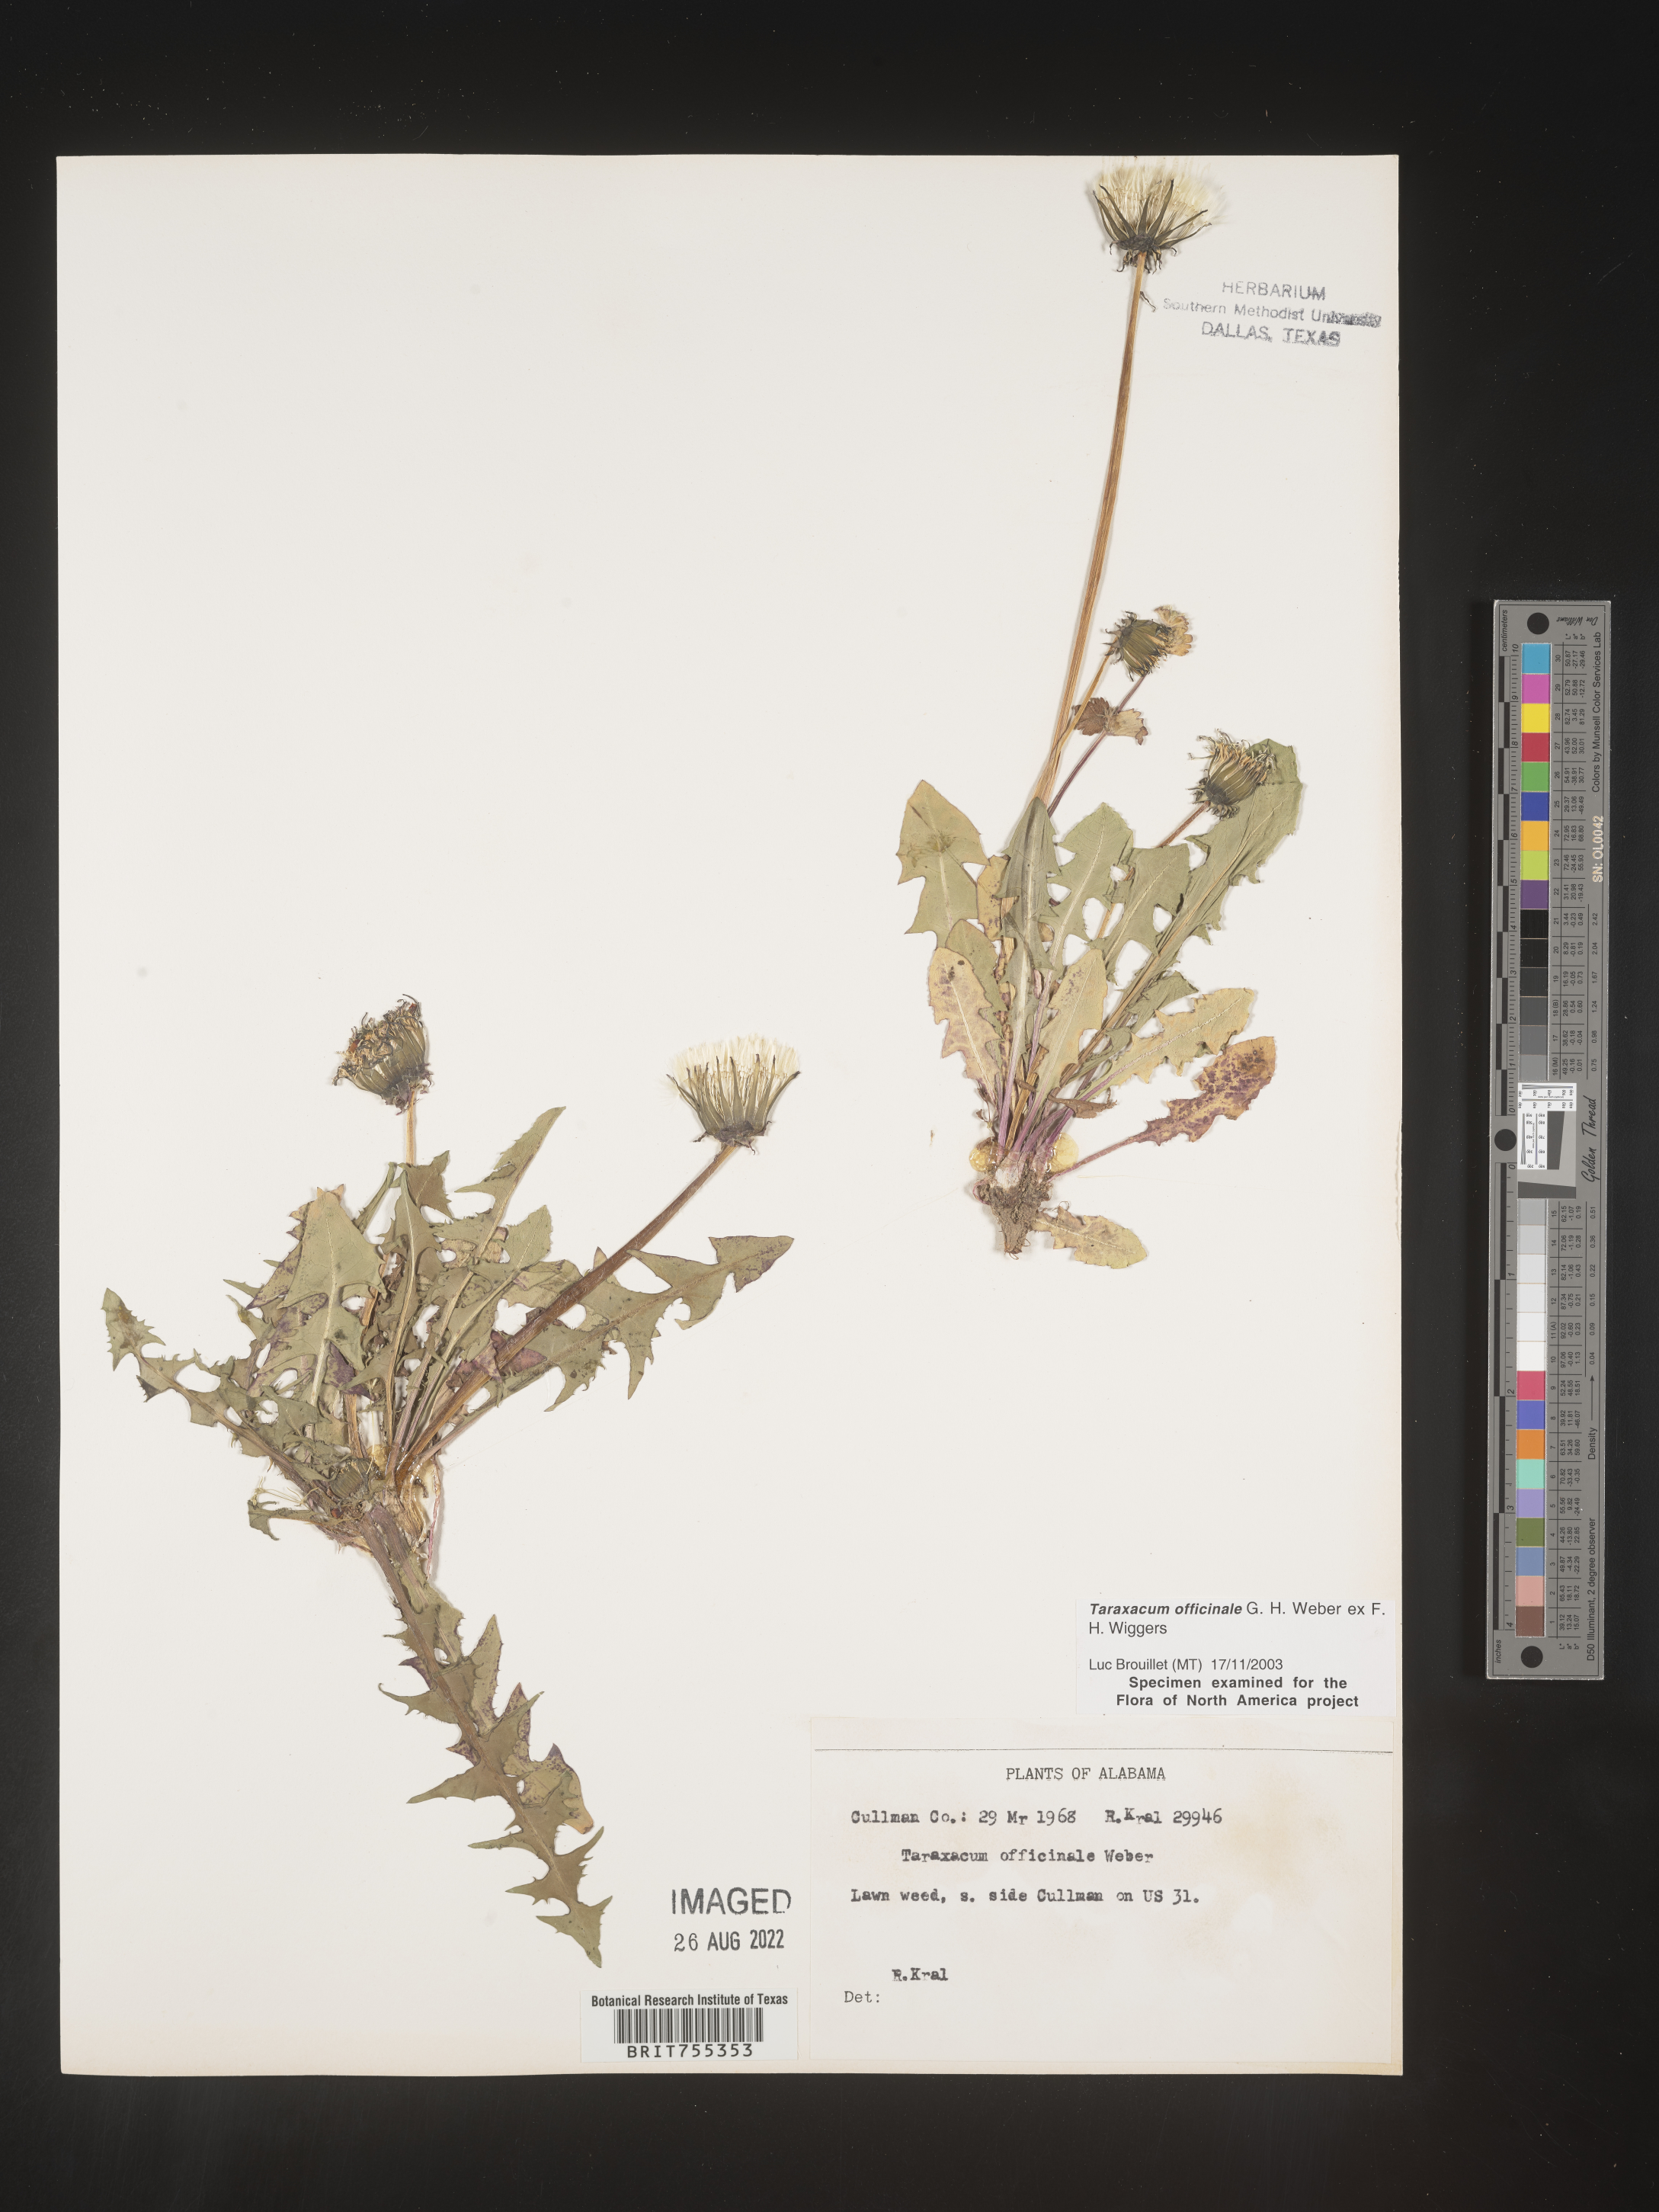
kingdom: Plantae
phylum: Tracheophyta
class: Magnoliopsida
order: Asterales
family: Asteraceae
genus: Taraxacum
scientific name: Taraxacum officinale
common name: Common dandelion
